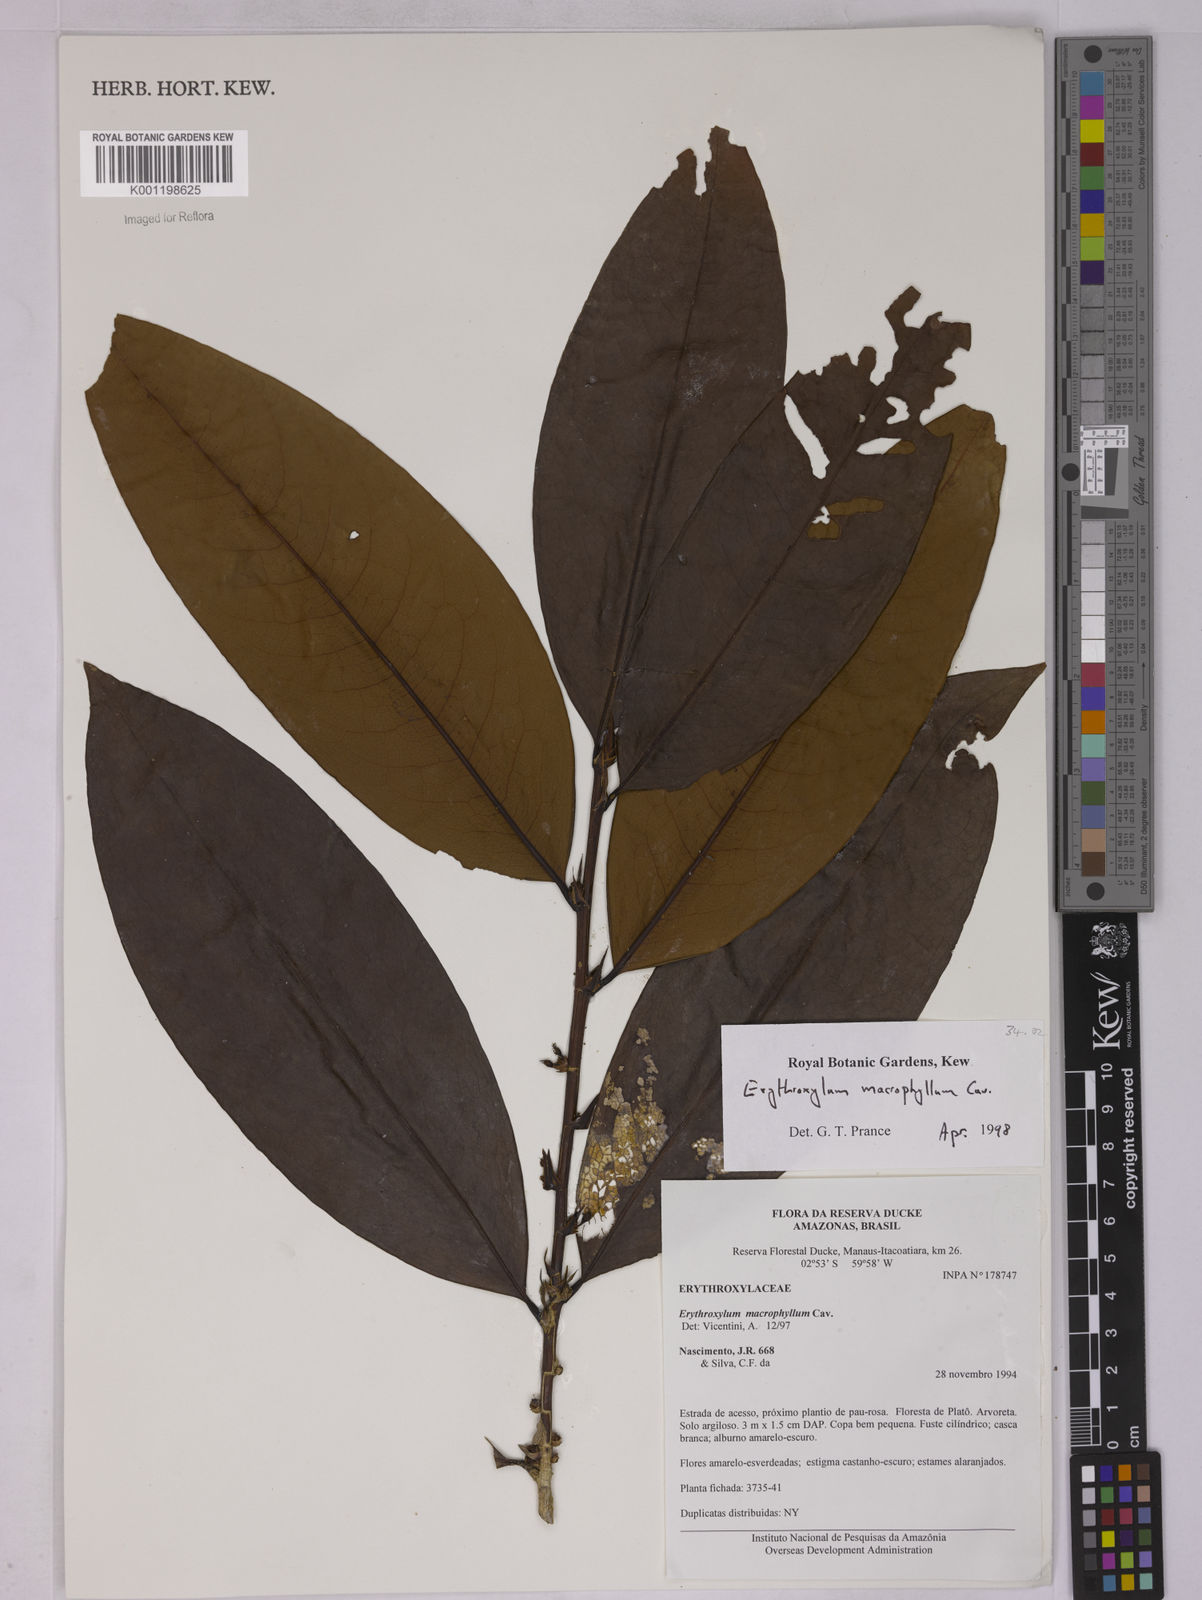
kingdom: Plantae
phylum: Tracheophyta
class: Magnoliopsida
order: Malpighiales
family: Erythroxylaceae
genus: Erythroxylum
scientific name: Erythroxylum macrophyllum
